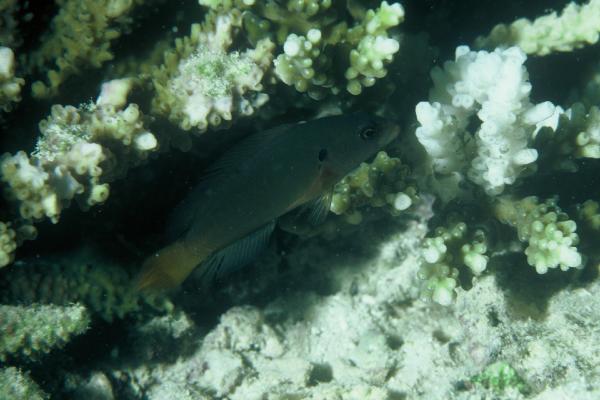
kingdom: Animalia
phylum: Chordata
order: Perciformes
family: Pseudochromidae
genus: Pseudochromis
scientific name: Pseudochromis linda
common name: Yellowtail dottyback
